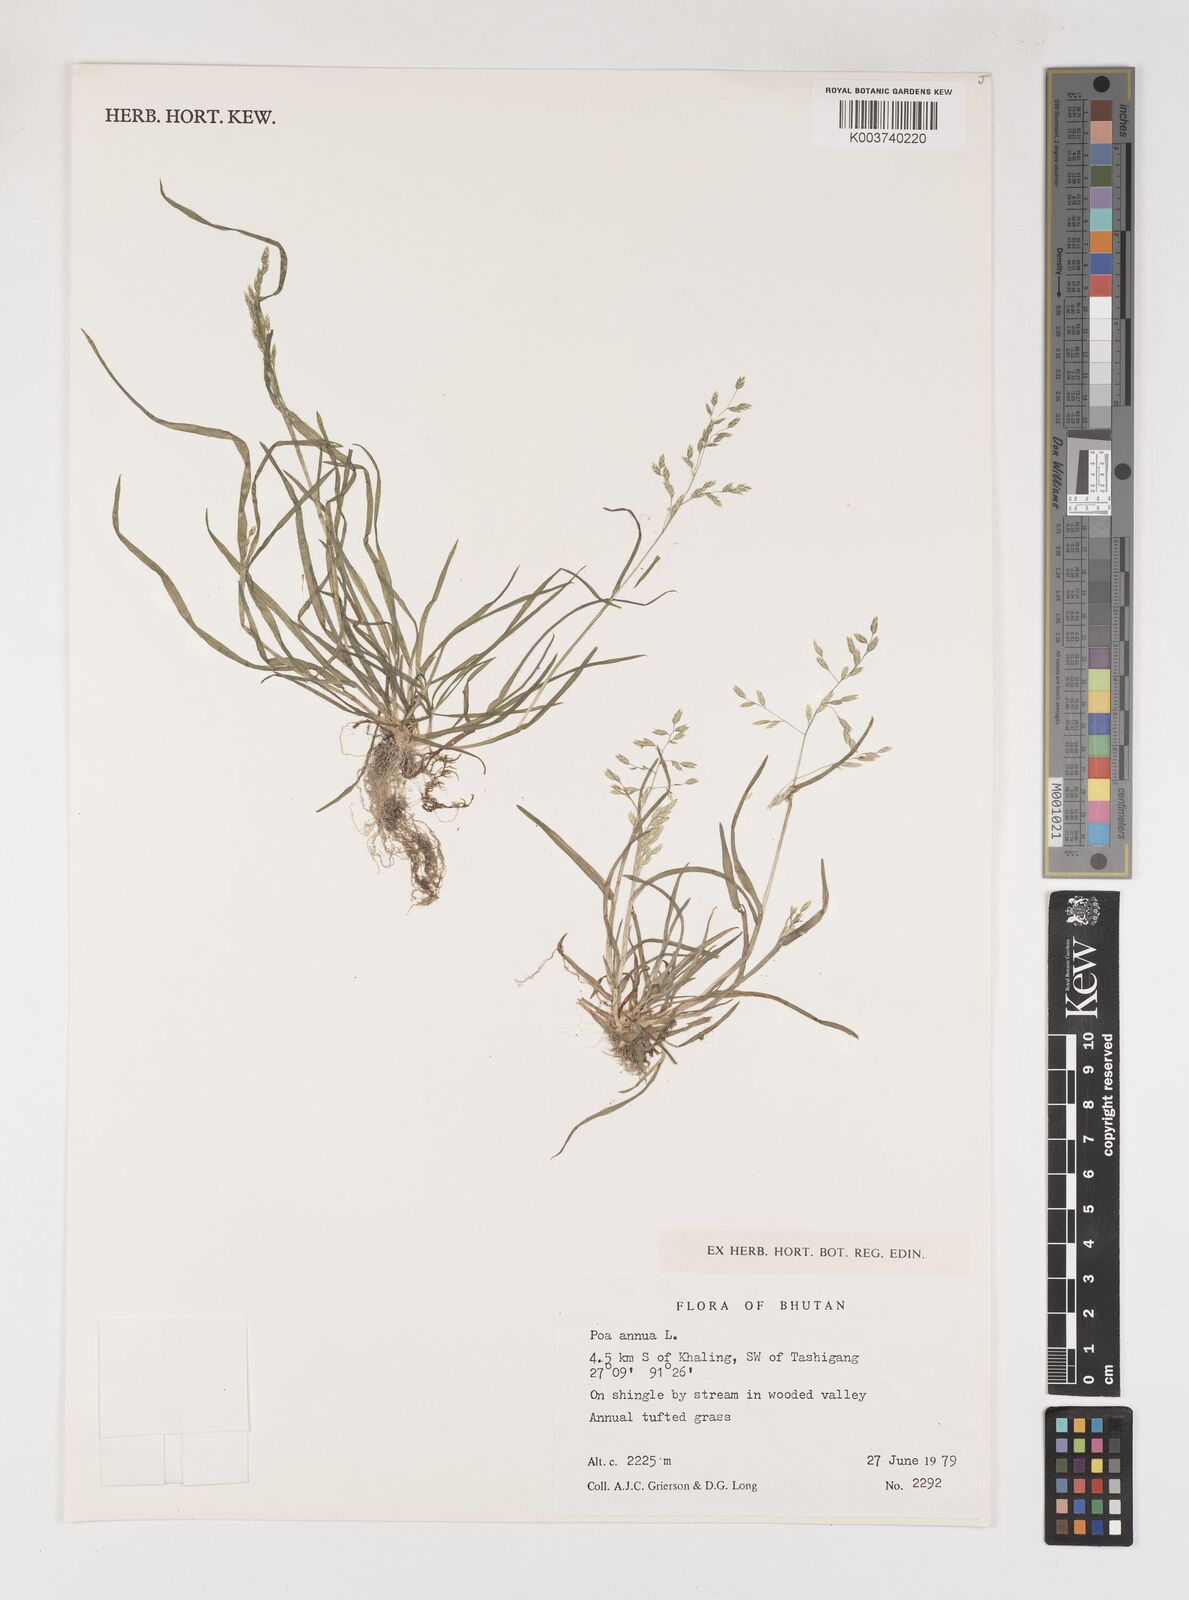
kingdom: Plantae
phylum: Tracheophyta
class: Liliopsida
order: Poales
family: Poaceae
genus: Poa
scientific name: Poa annua
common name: Annual bluegrass
